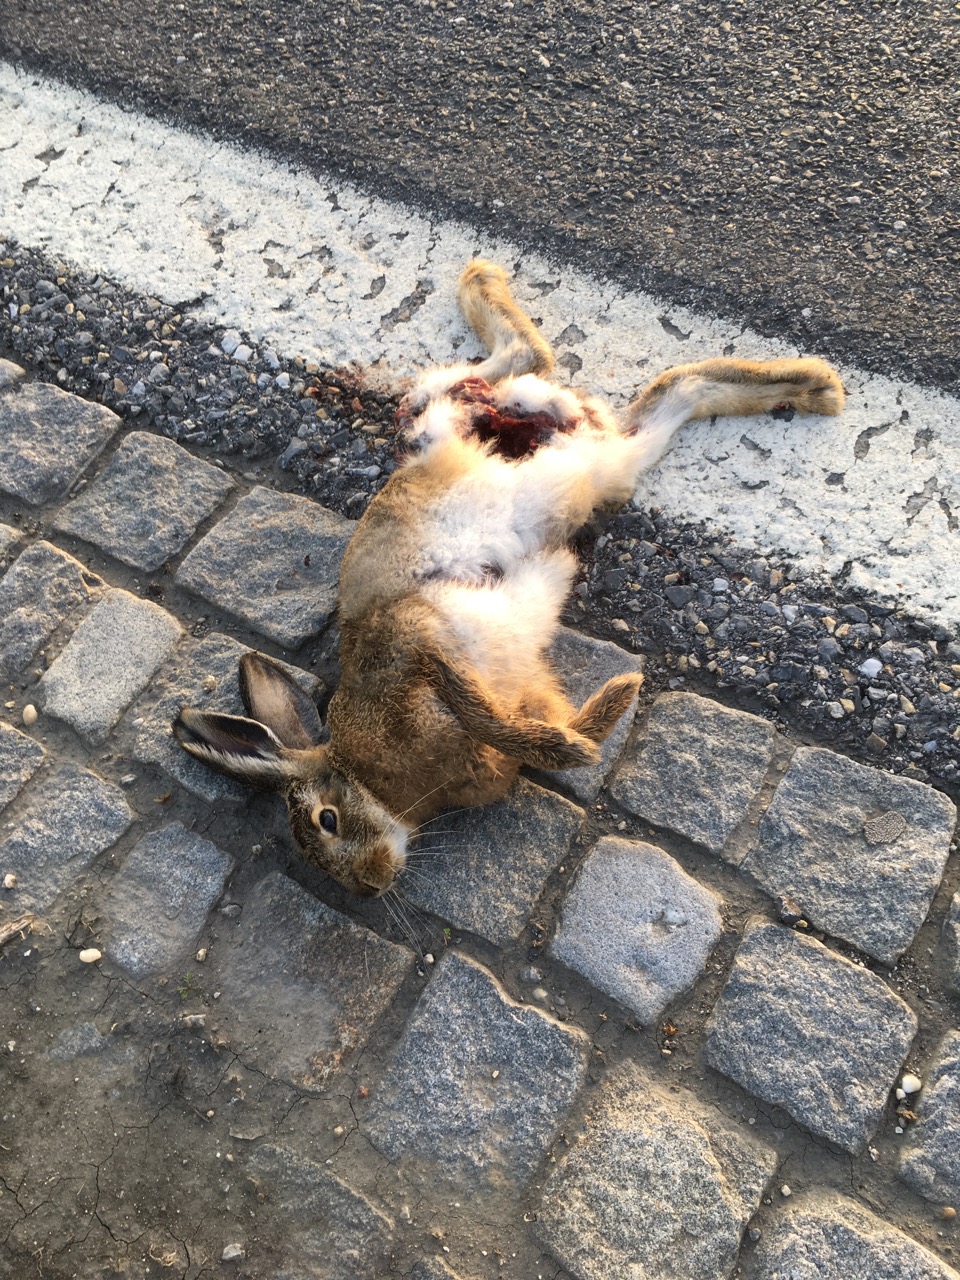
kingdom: Animalia
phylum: Chordata
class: Mammalia
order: Lagomorpha
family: Leporidae
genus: Lepus
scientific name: Lepus europaeus
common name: European hare
